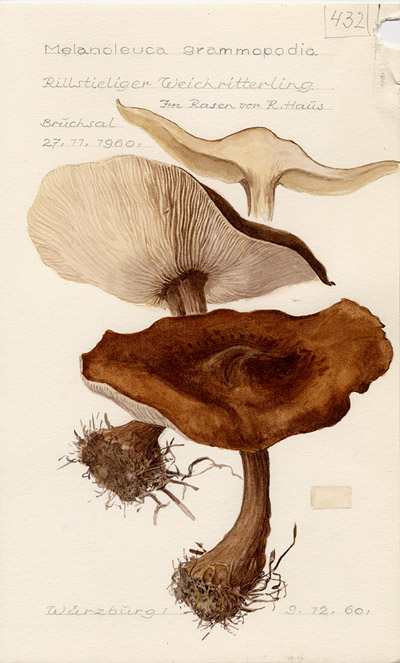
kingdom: Fungi
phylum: Basidiomycota
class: Agaricomycetes
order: Agaricales
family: Tricholomataceae
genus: Melanoleuca
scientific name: Melanoleuca grammopodia
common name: Grooved cavalier
